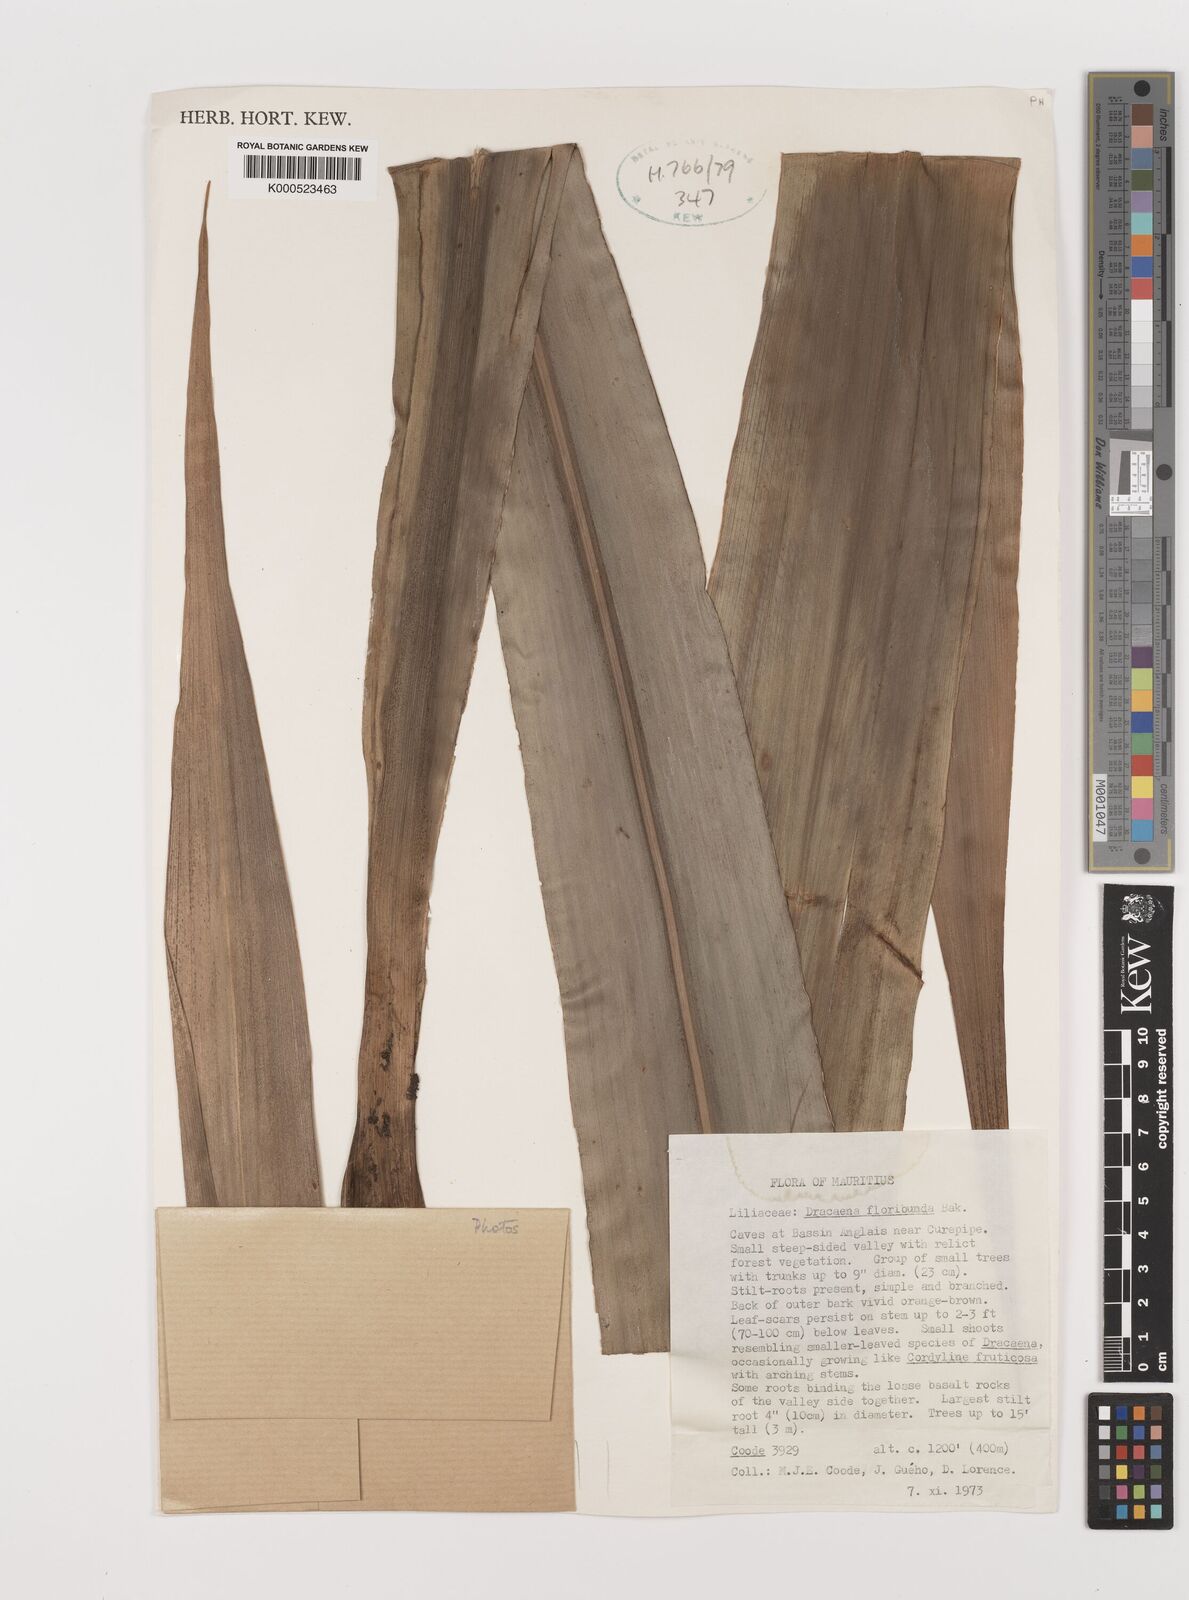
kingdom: Plantae
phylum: Tracheophyta
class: Liliopsida
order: Asparagales
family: Asparagaceae
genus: Dracaena
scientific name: Dracaena floribunda
